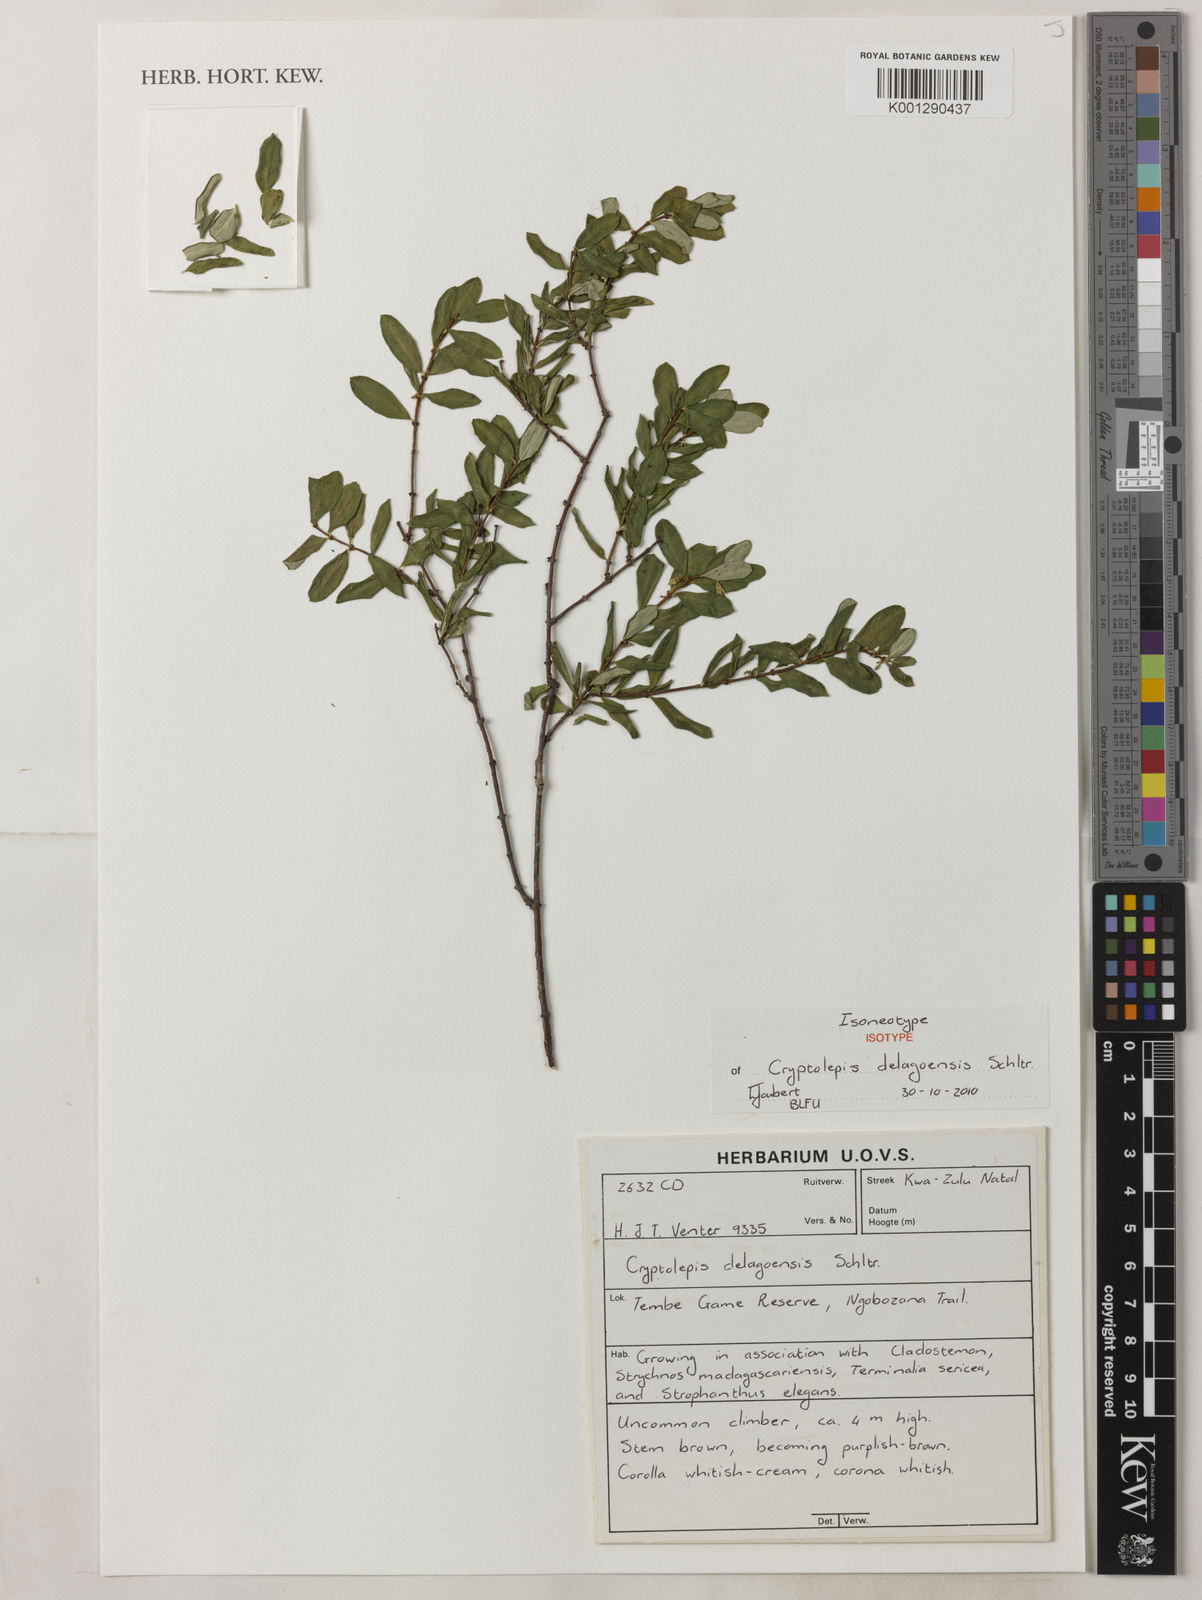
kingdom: Plantae
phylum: Tracheophyta
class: Magnoliopsida
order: Gentianales
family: Apocynaceae
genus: Cryptolepis
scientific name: Cryptolepis delagoensis
